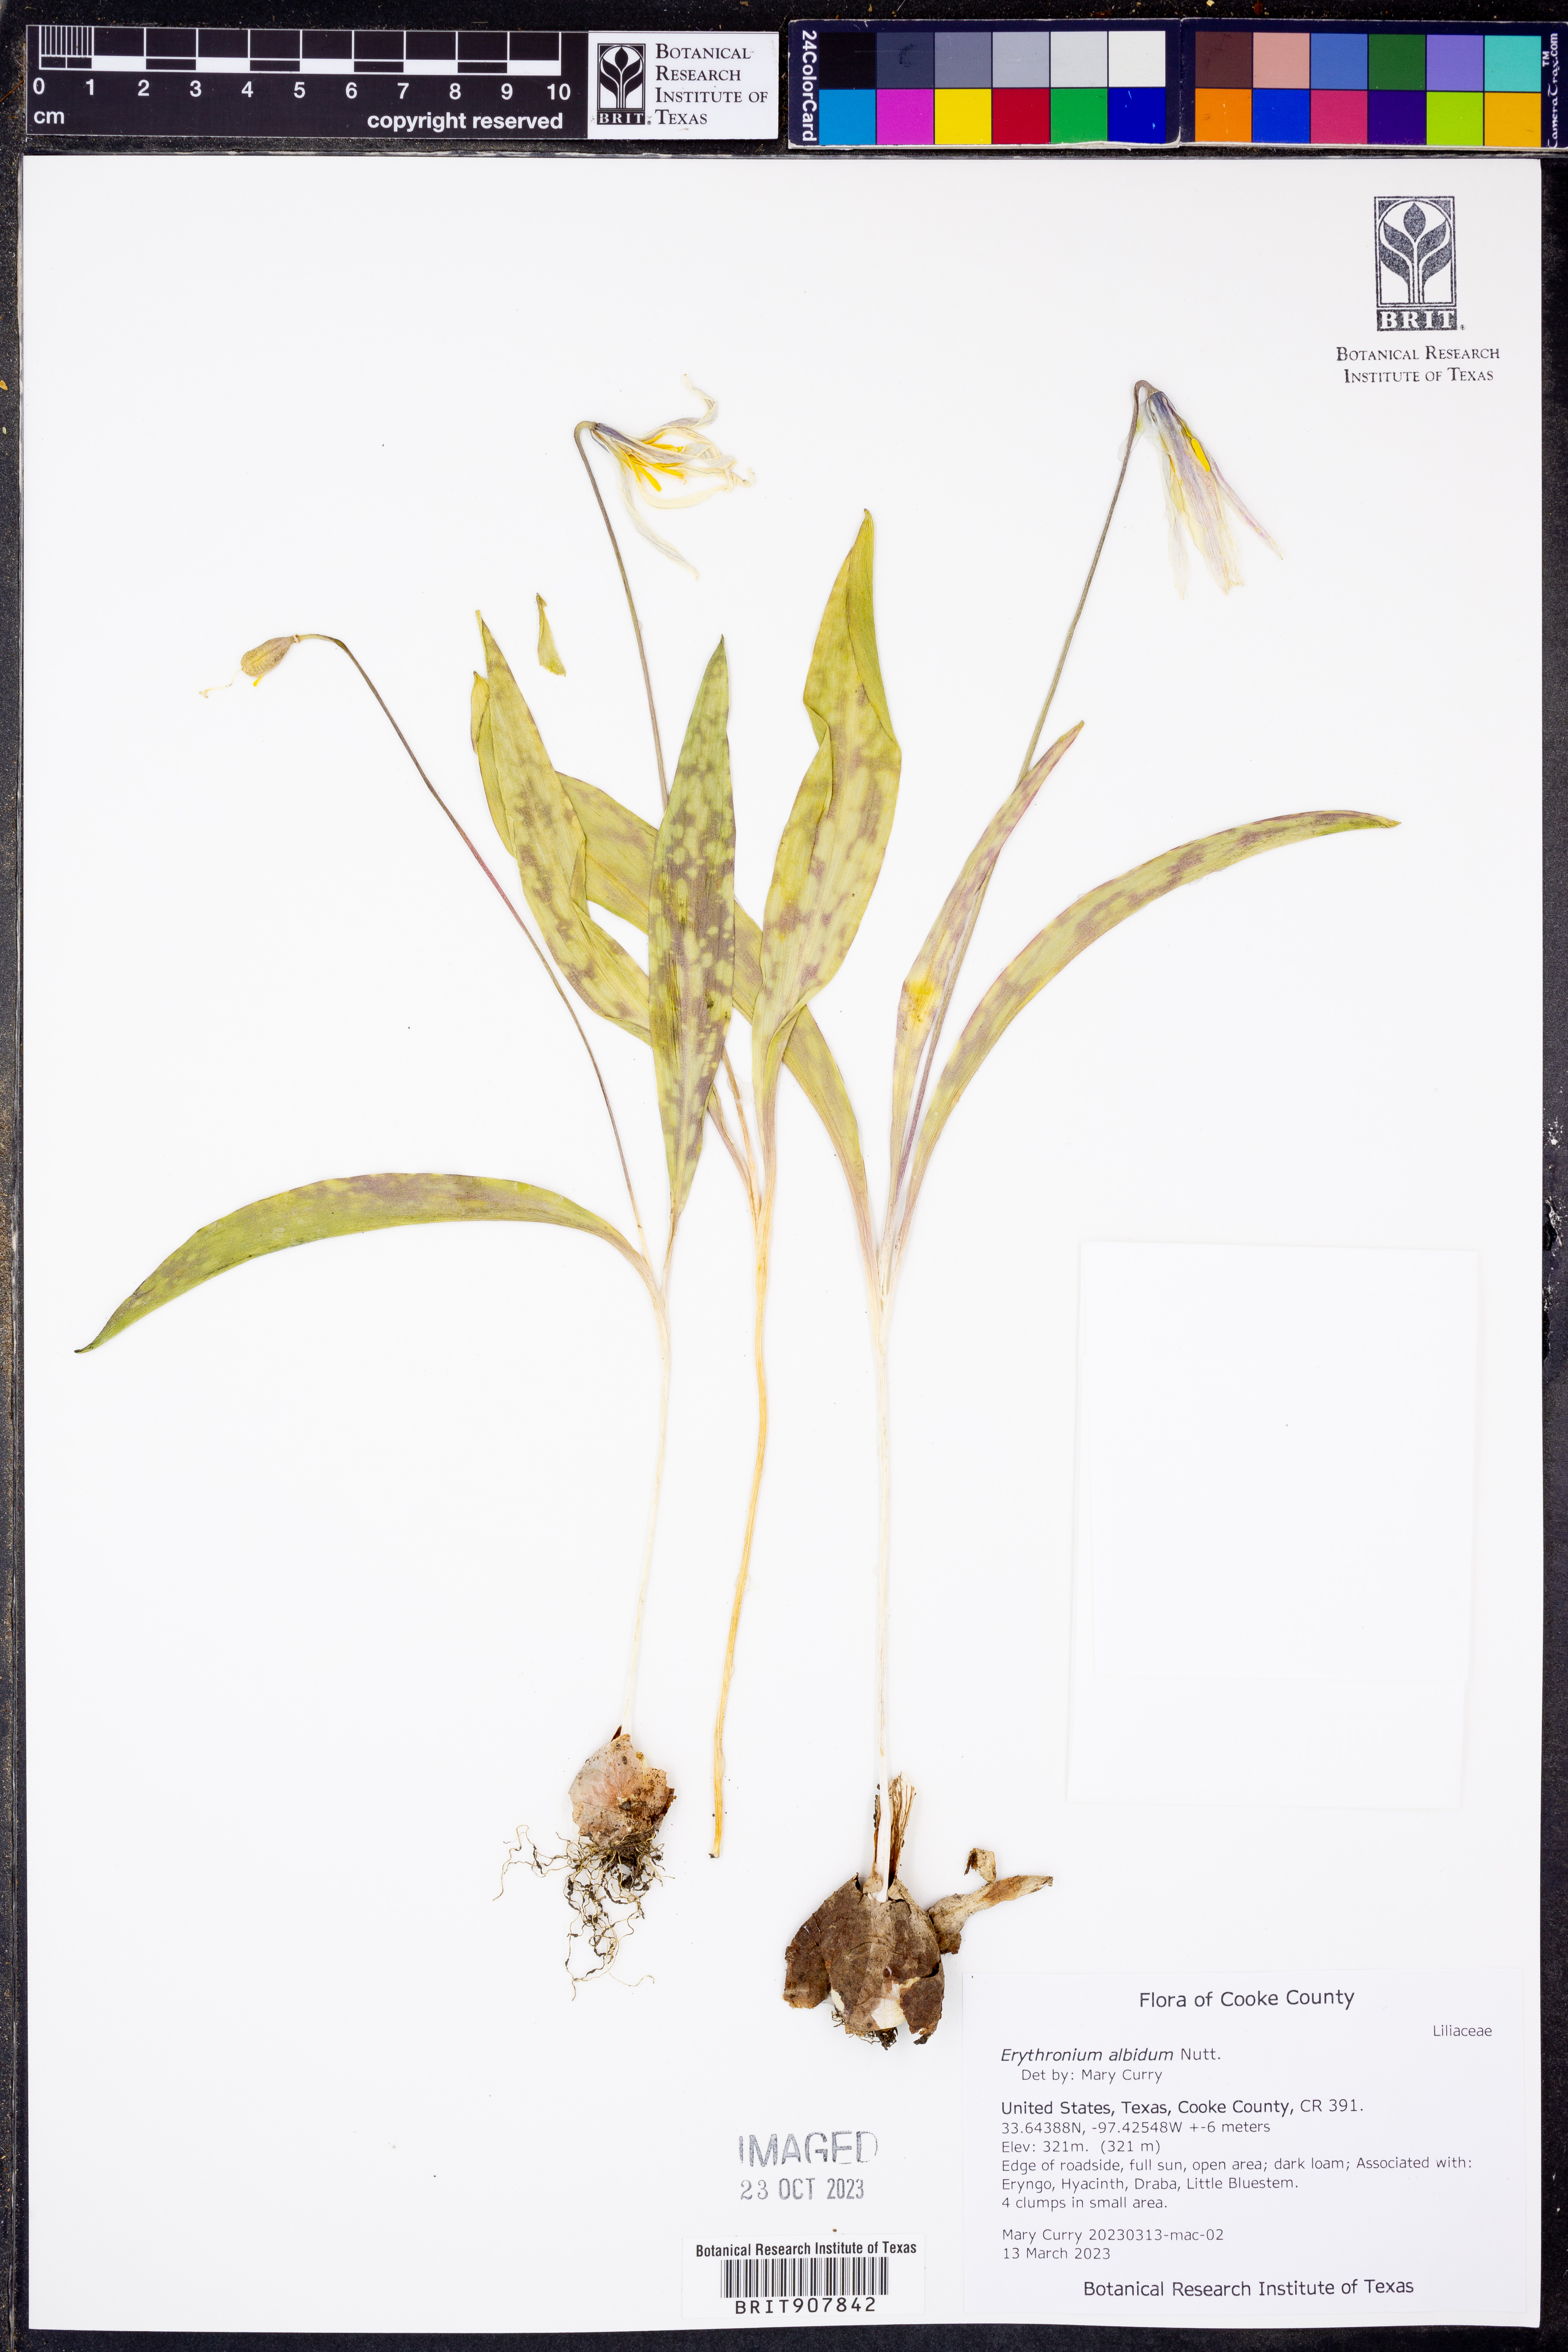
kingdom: Plantae
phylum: Tracheophyta
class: Liliopsida
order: Liliales
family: Liliaceae
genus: Erythronium
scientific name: Erythronium albidum
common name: White trout-lily
